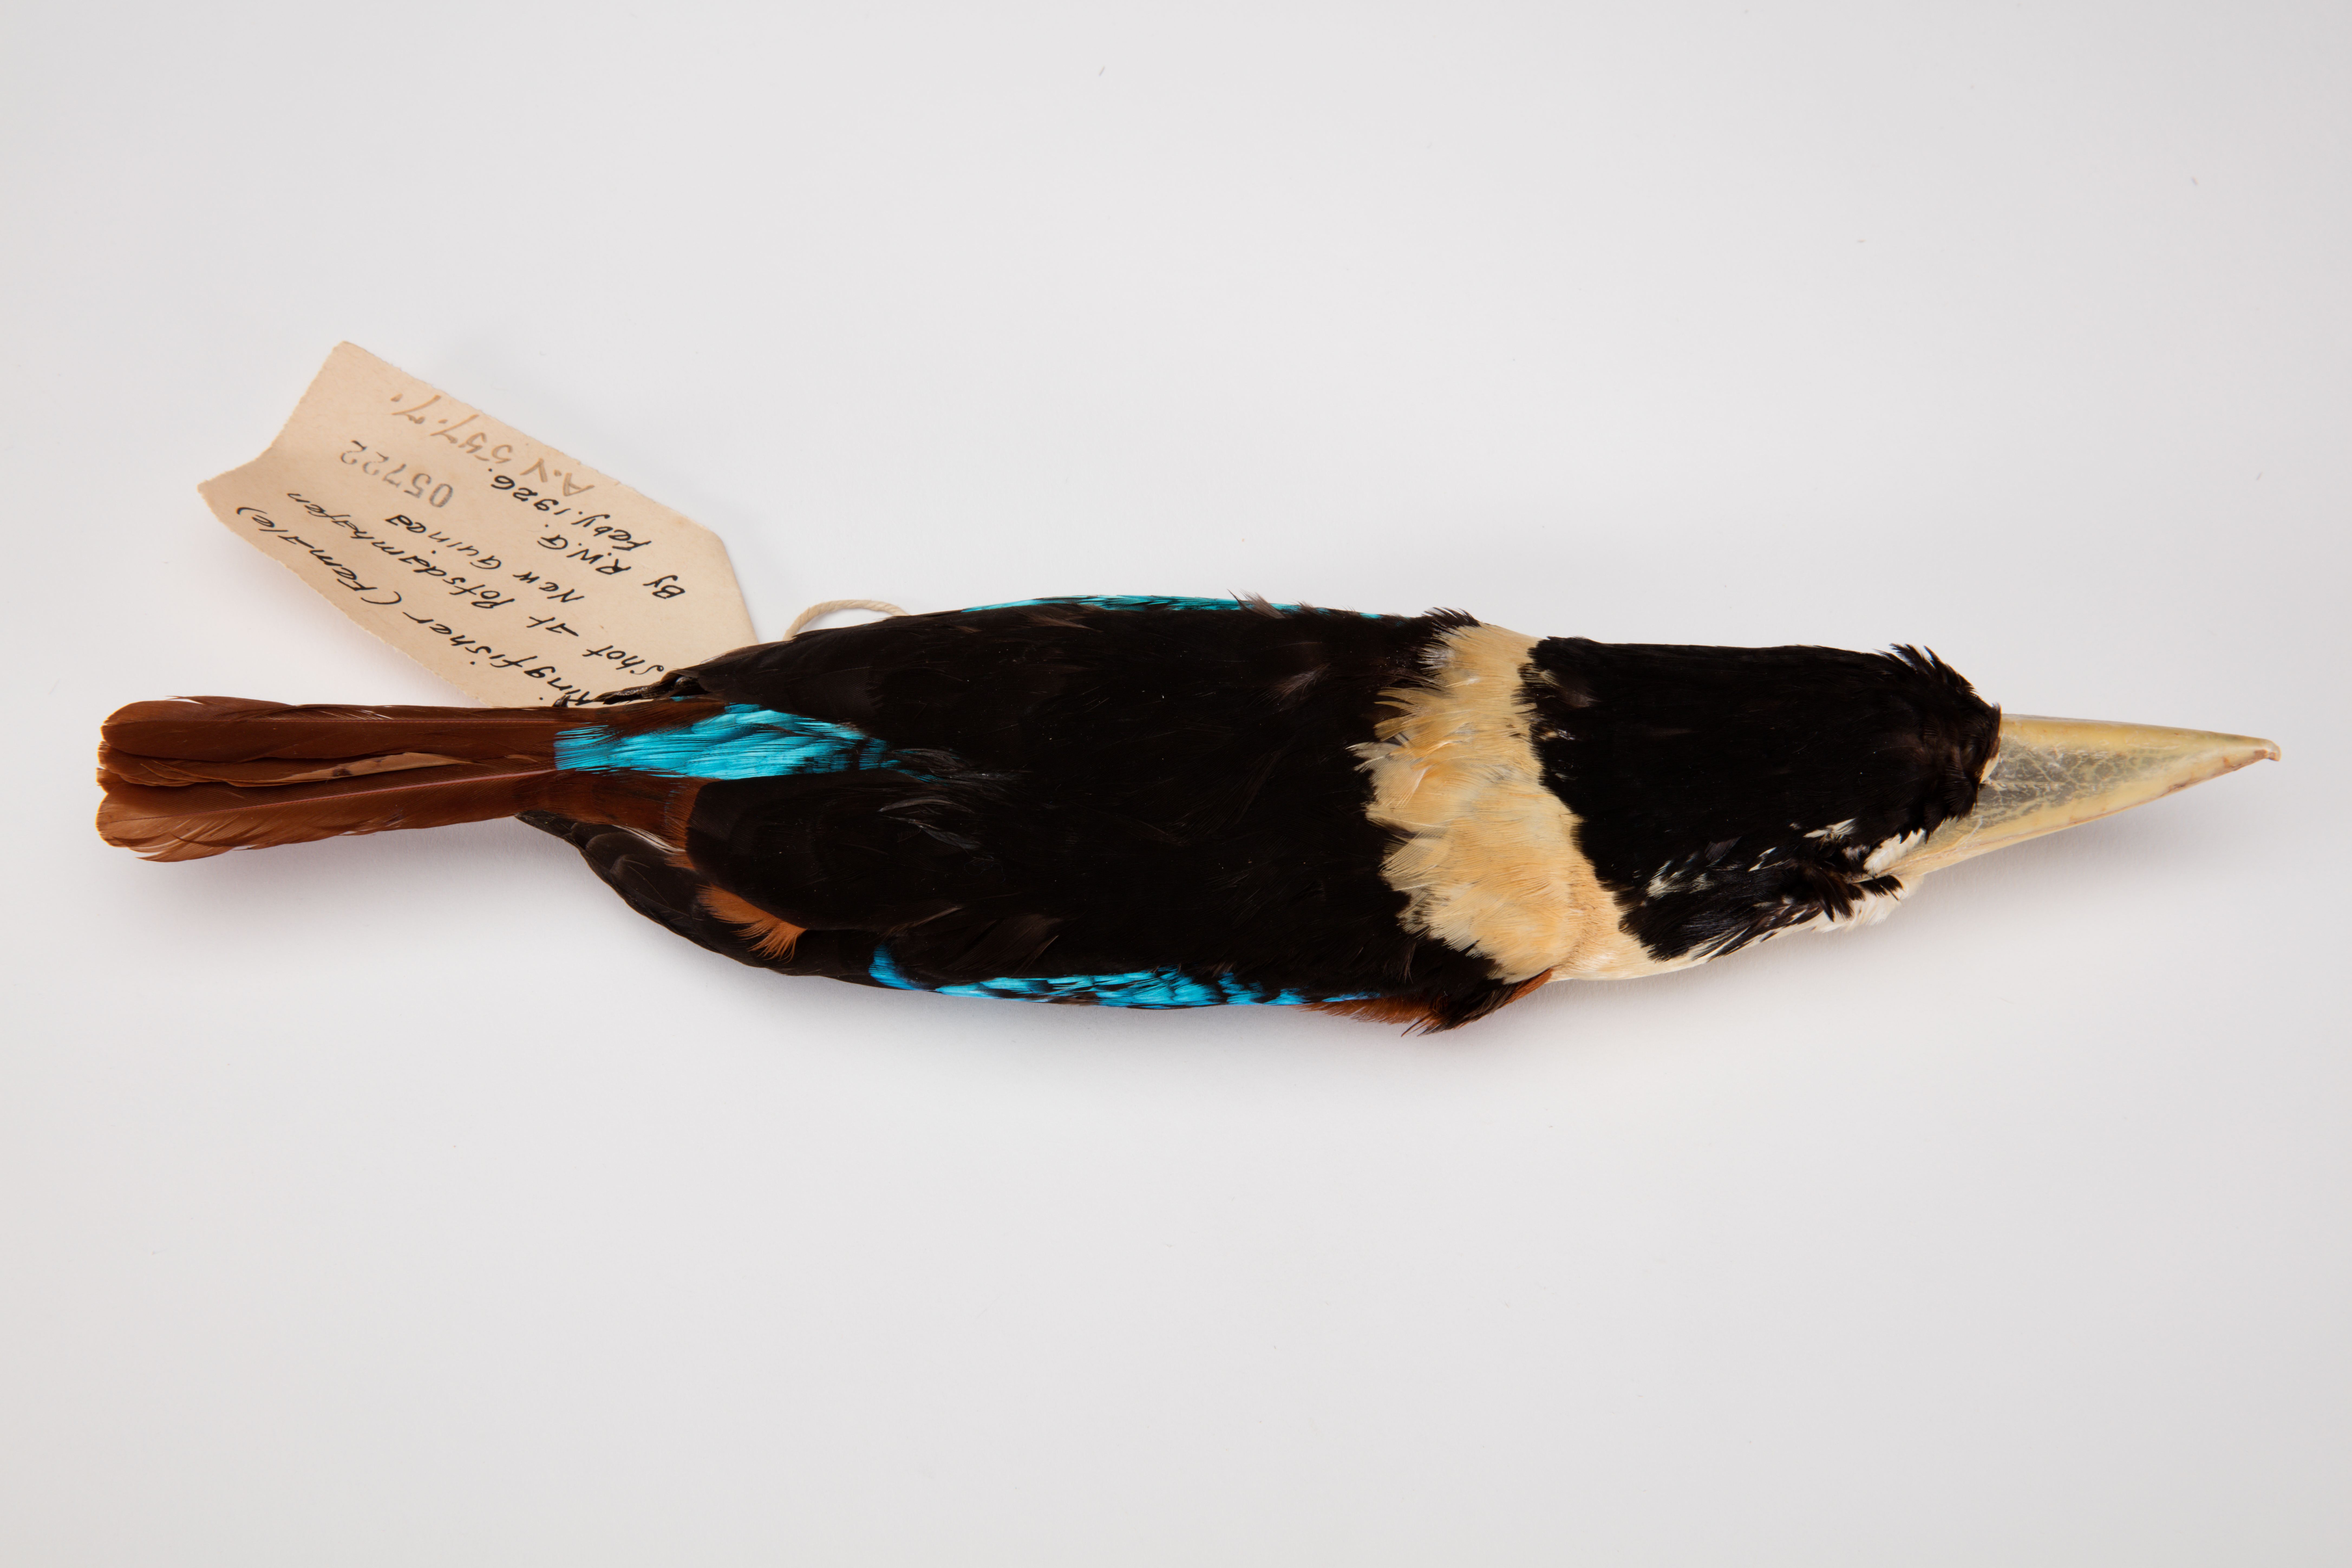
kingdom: Animalia
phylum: Chordata
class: Aves
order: Coraciiformes
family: Alcedinidae
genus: Dacelo
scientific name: Dacelo gaudichaud
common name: Rufous-bellied kookaburra
